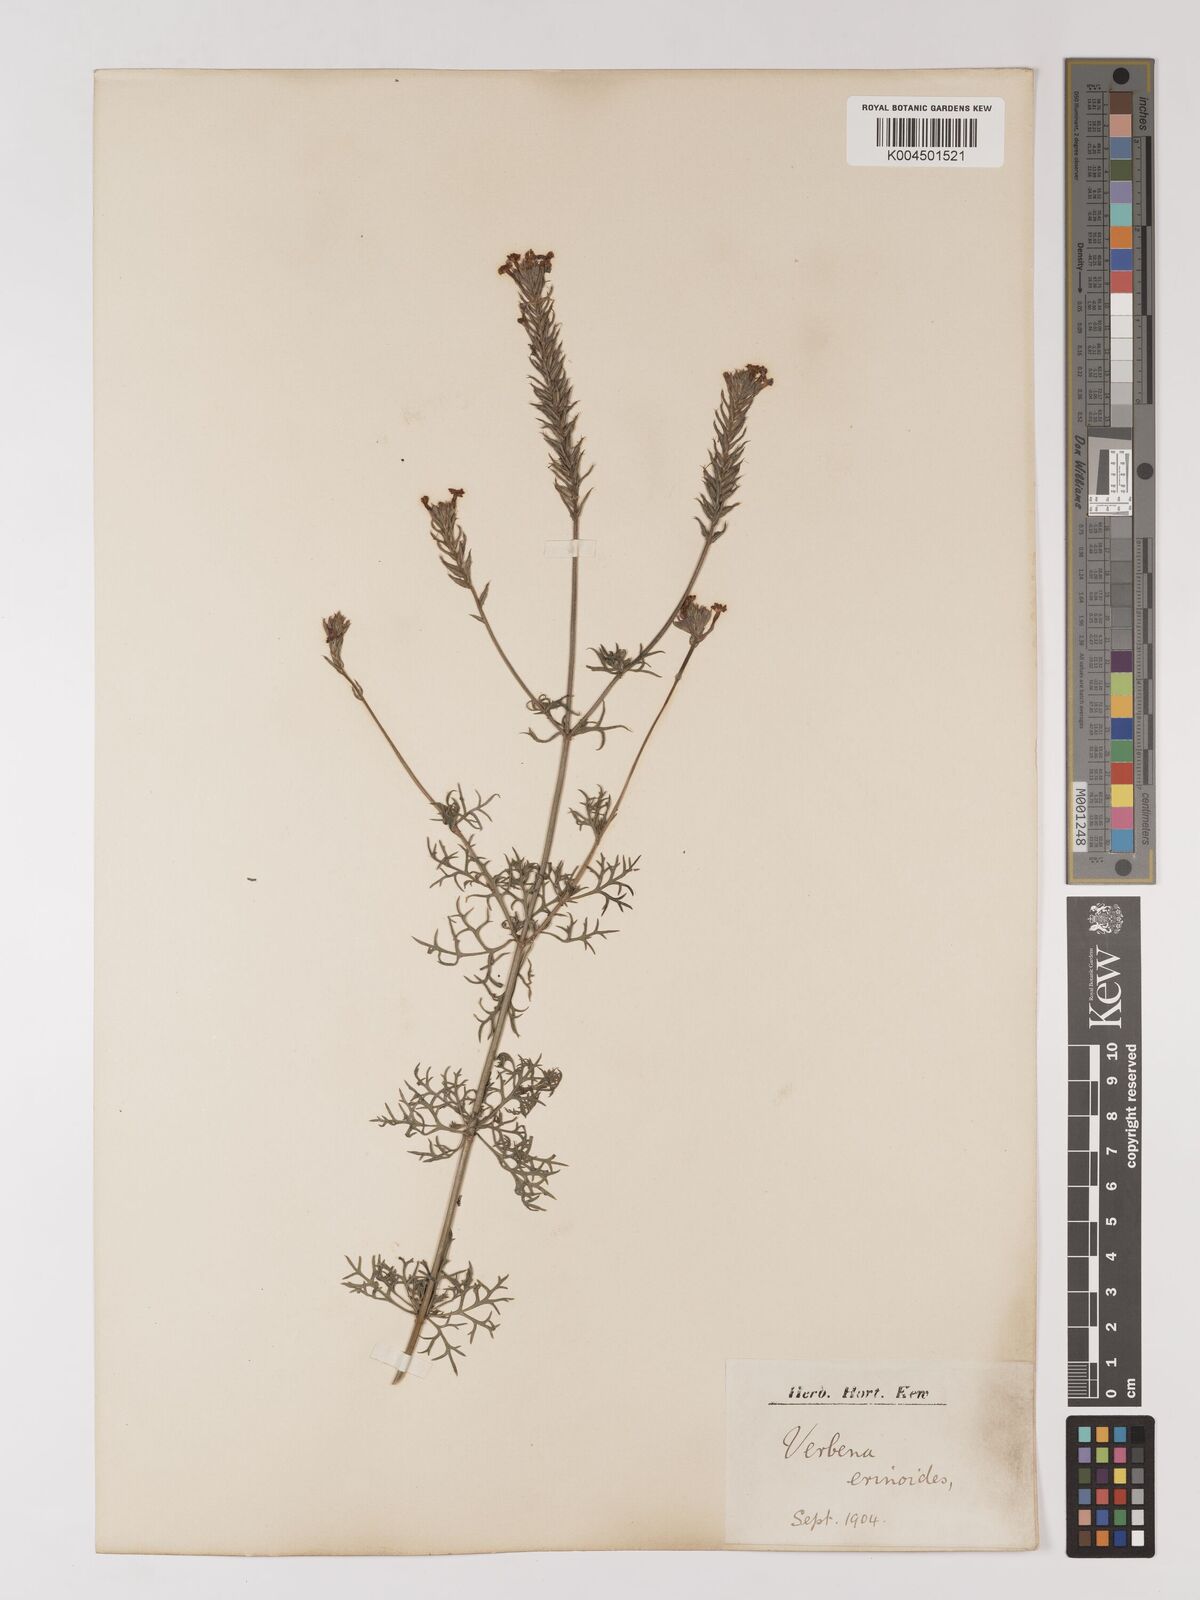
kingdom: Plantae
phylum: Tracheophyta
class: Magnoliopsida
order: Lamiales
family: Verbenaceae
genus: Verbena
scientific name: Verbena aristigera
